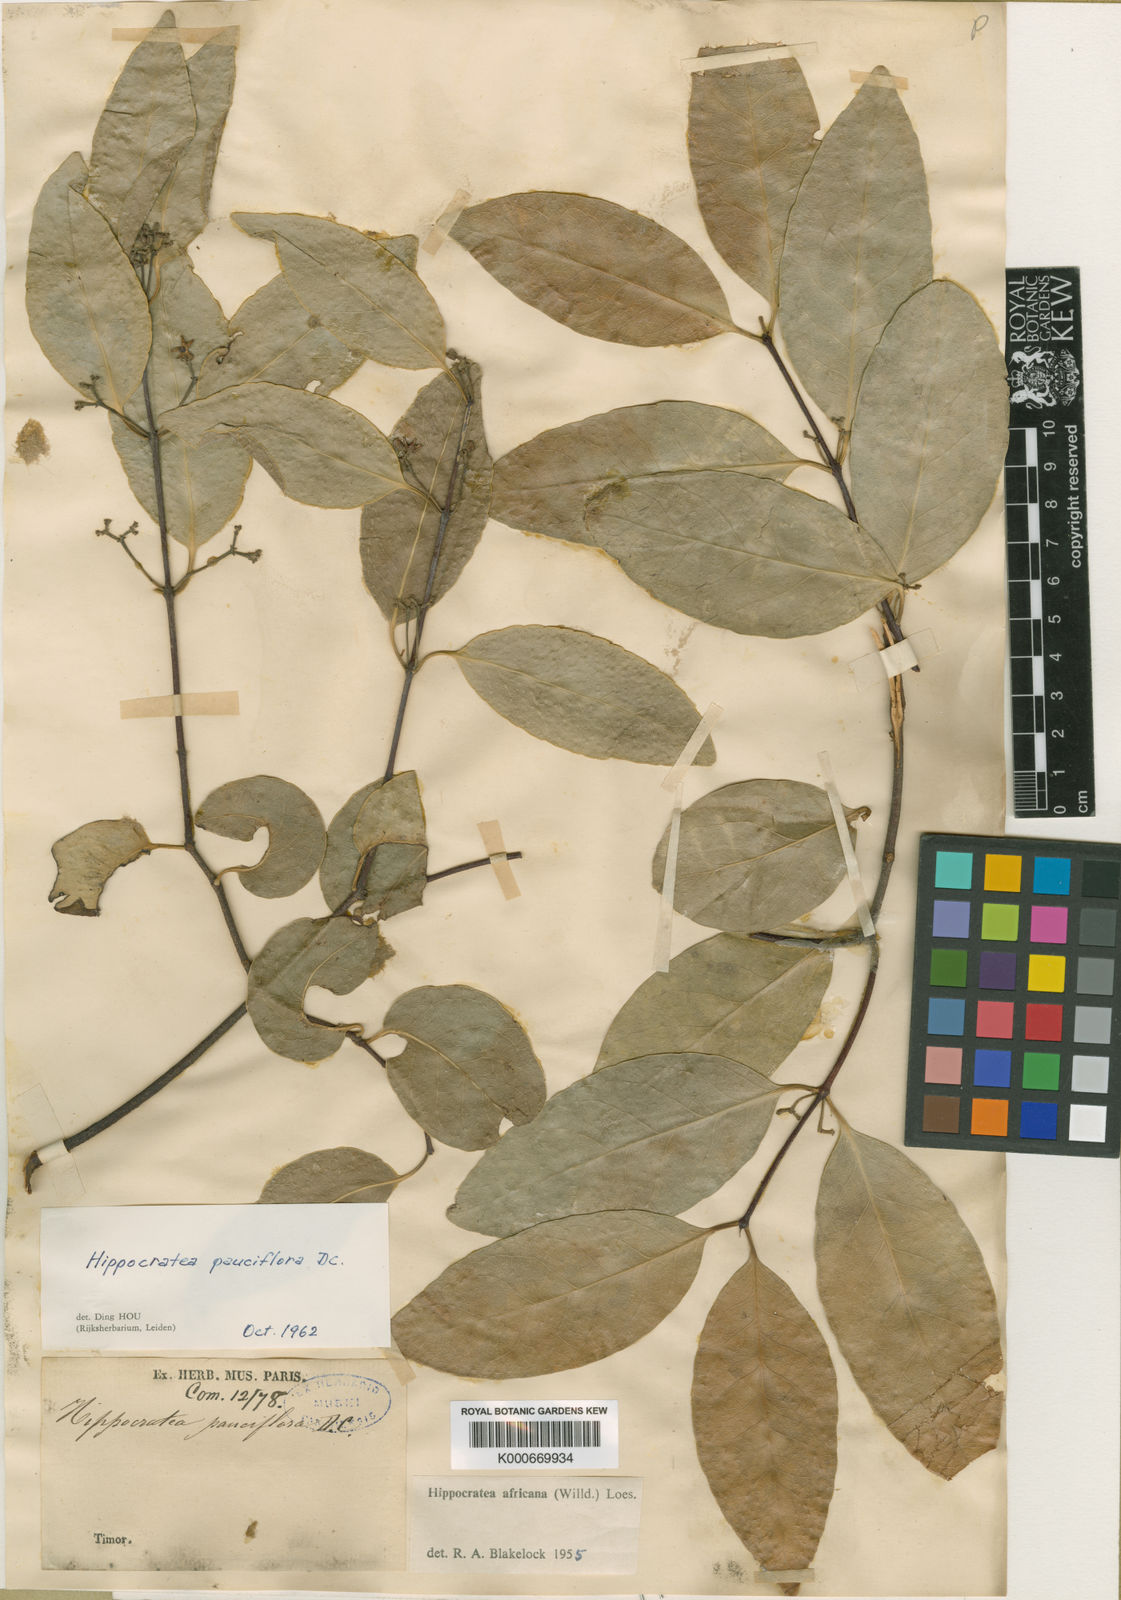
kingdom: Plantae
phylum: Tracheophyta
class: Magnoliopsida
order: Celastrales
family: Celastraceae
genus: Loeseneriella
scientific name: Loeseneriella pauciflora
